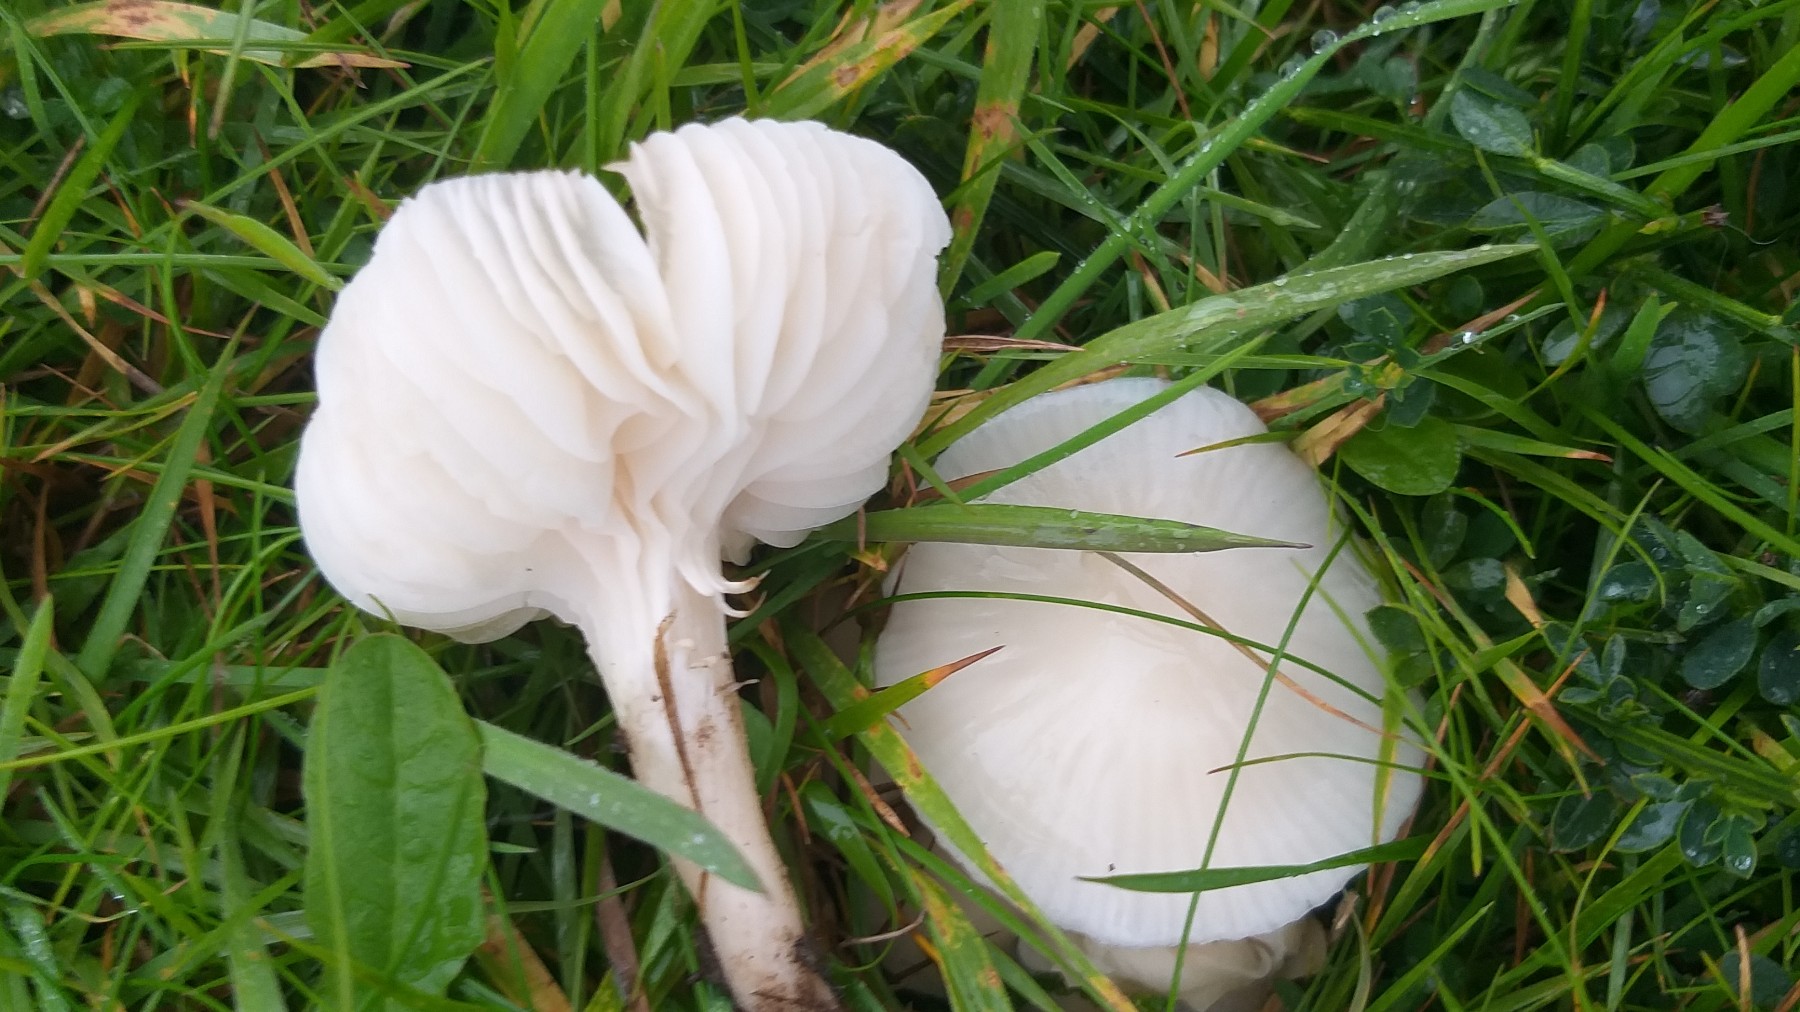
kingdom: Fungi
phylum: Basidiomycota
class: Agaricomycetes
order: Agaricales
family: Hygrophoraceae
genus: Cuphophyllus
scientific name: Cuphophyllus russocoriaceus
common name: ruslæder-vokshat
